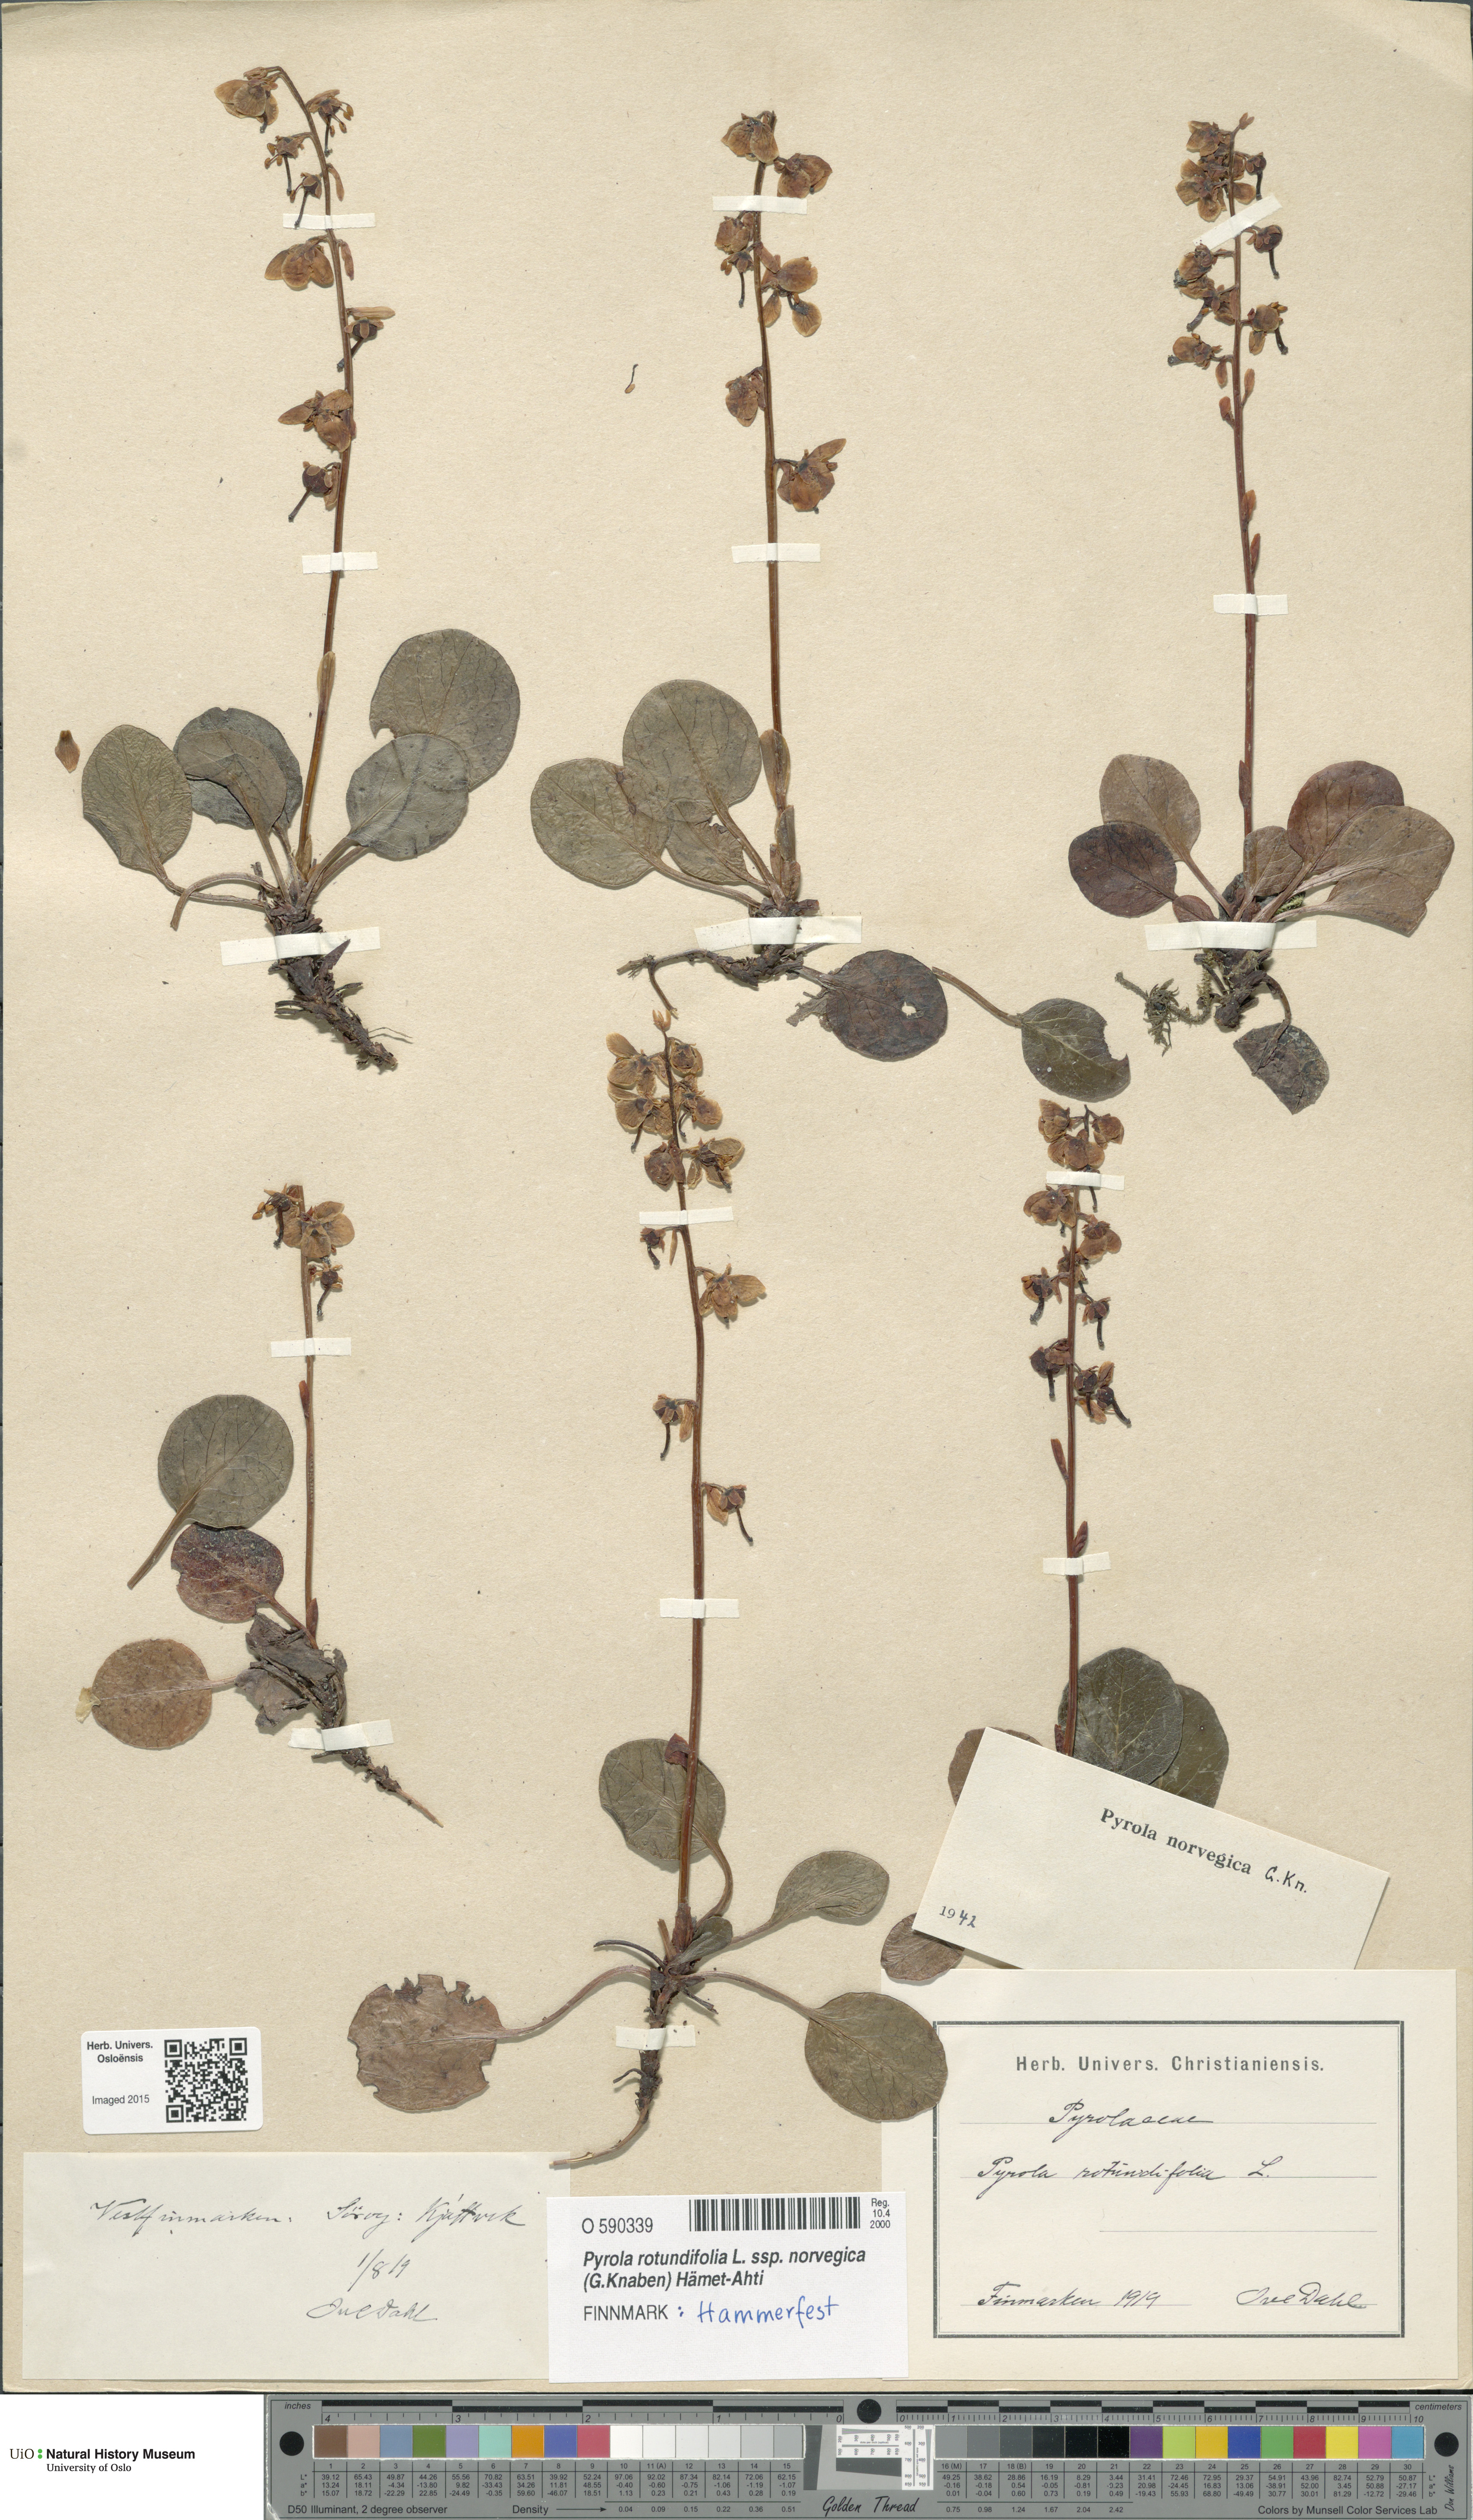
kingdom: Plantae
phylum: Tracheophyta
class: Magnoliopsida
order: Ericales
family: Ericaceae
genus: Pyrola
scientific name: Pyrola rotundifolia
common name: Round-leaved wintergreen
